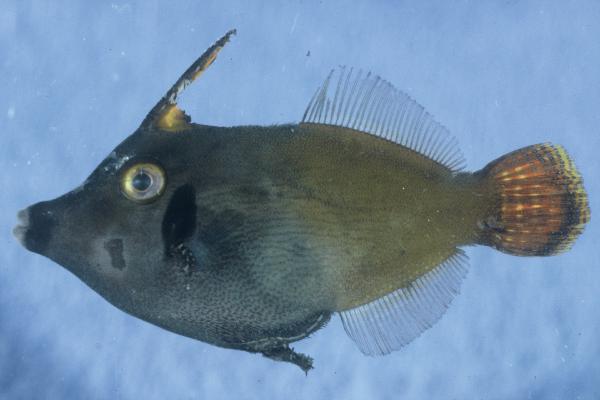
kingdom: Animalia
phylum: Chordata
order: Tetraodontiformes
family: Monacanthidae
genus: Pervagor
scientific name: Pervagor janthinosoma
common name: Blackbar filefish
